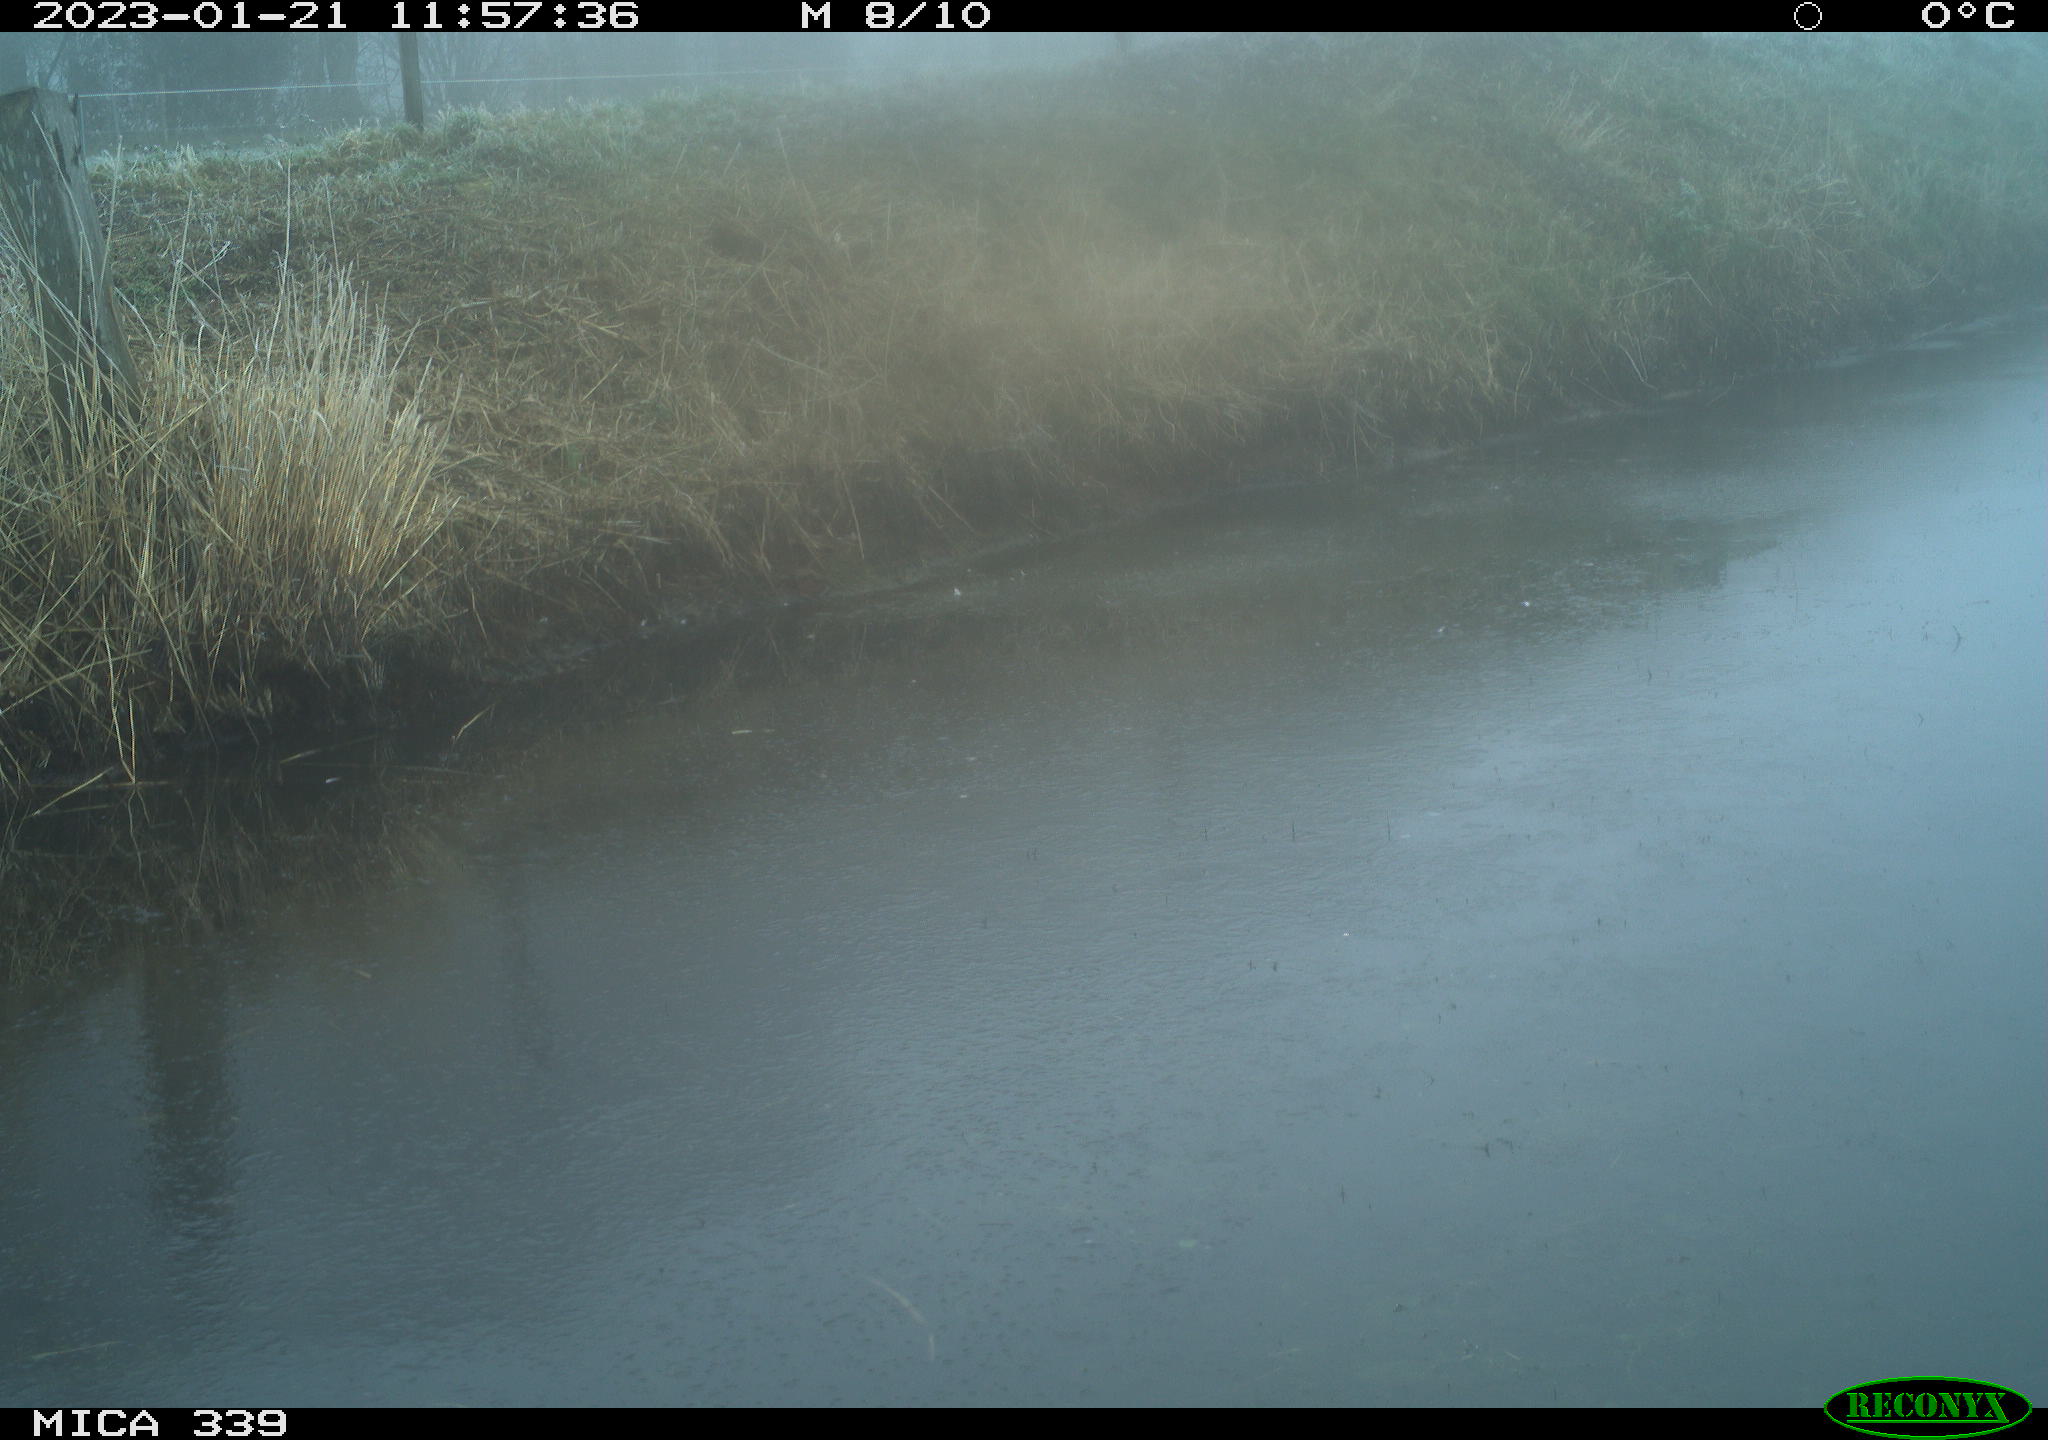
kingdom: Animalia
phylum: Chordata
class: Aves
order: Pelecaniformes
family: Ardeidae
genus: Ardea
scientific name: Ardea cinerea
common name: Grey heron
